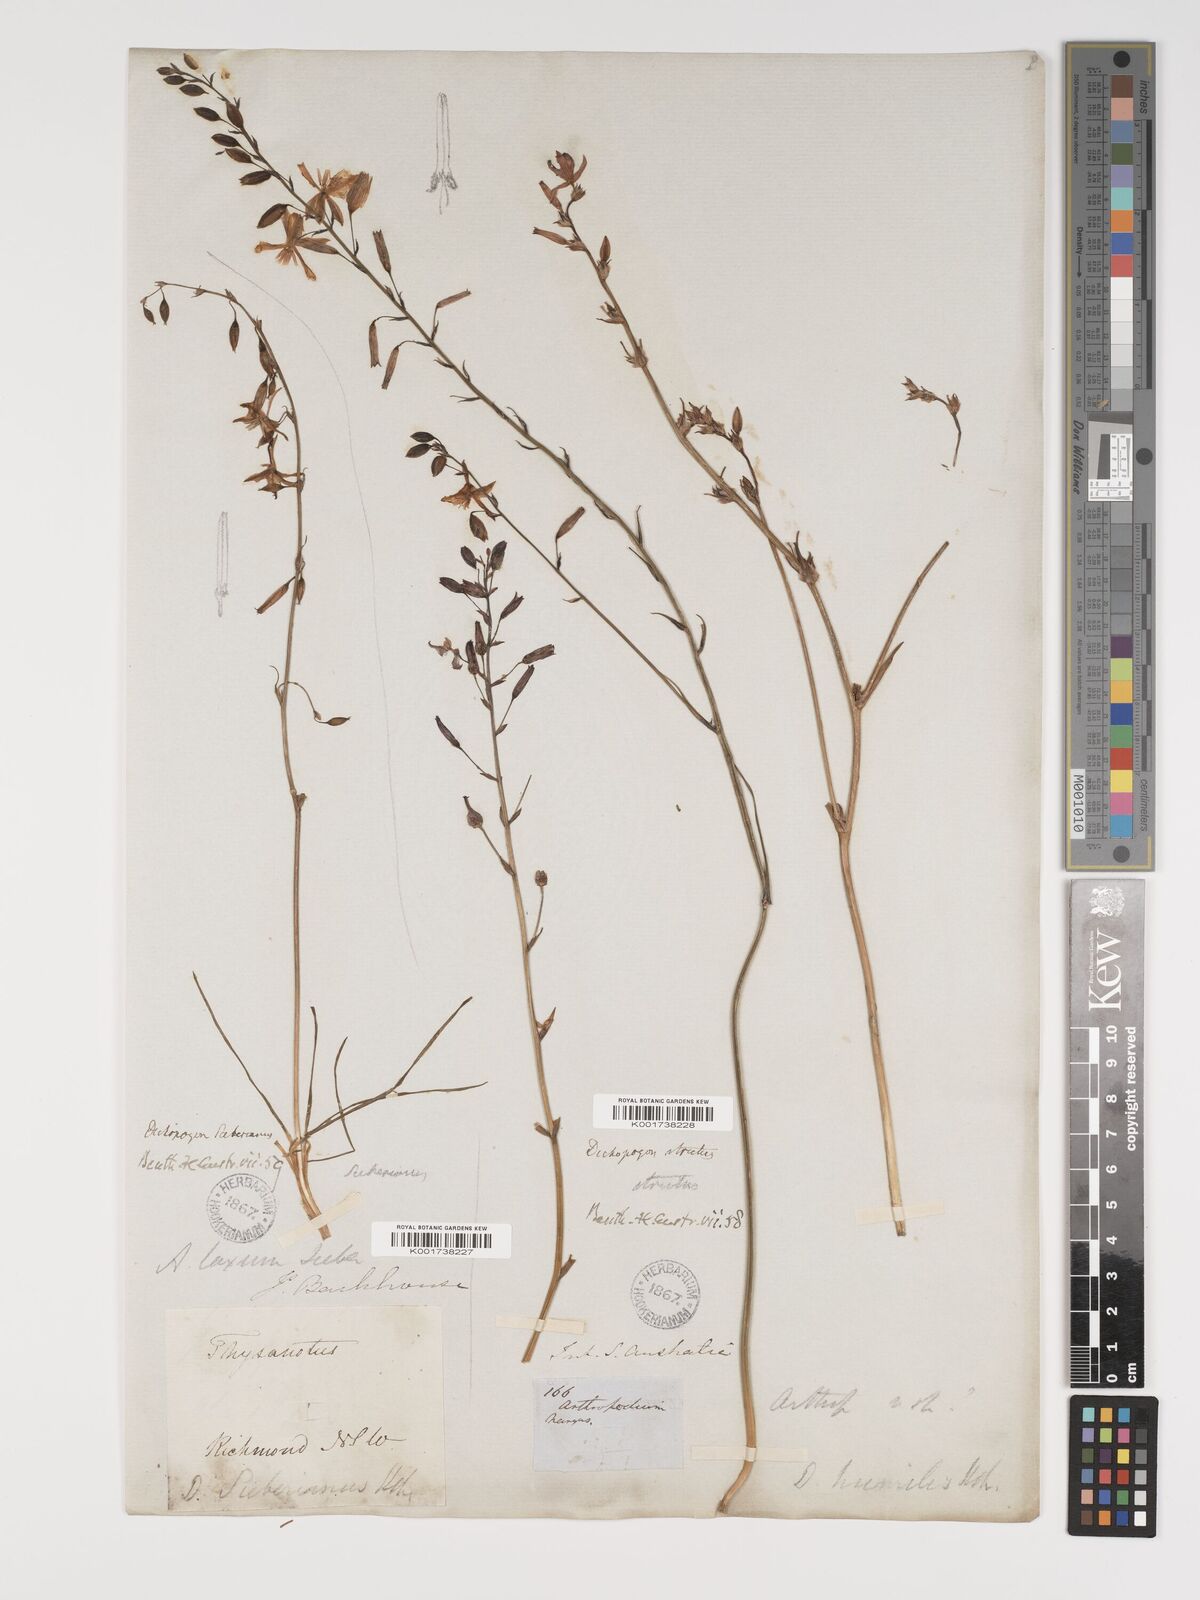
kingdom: Plantae
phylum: Tracheophyta
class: Liliopsida
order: Asparagales
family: Asparagaceae
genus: Dichopogon
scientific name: Dichopogon fimbriatus
